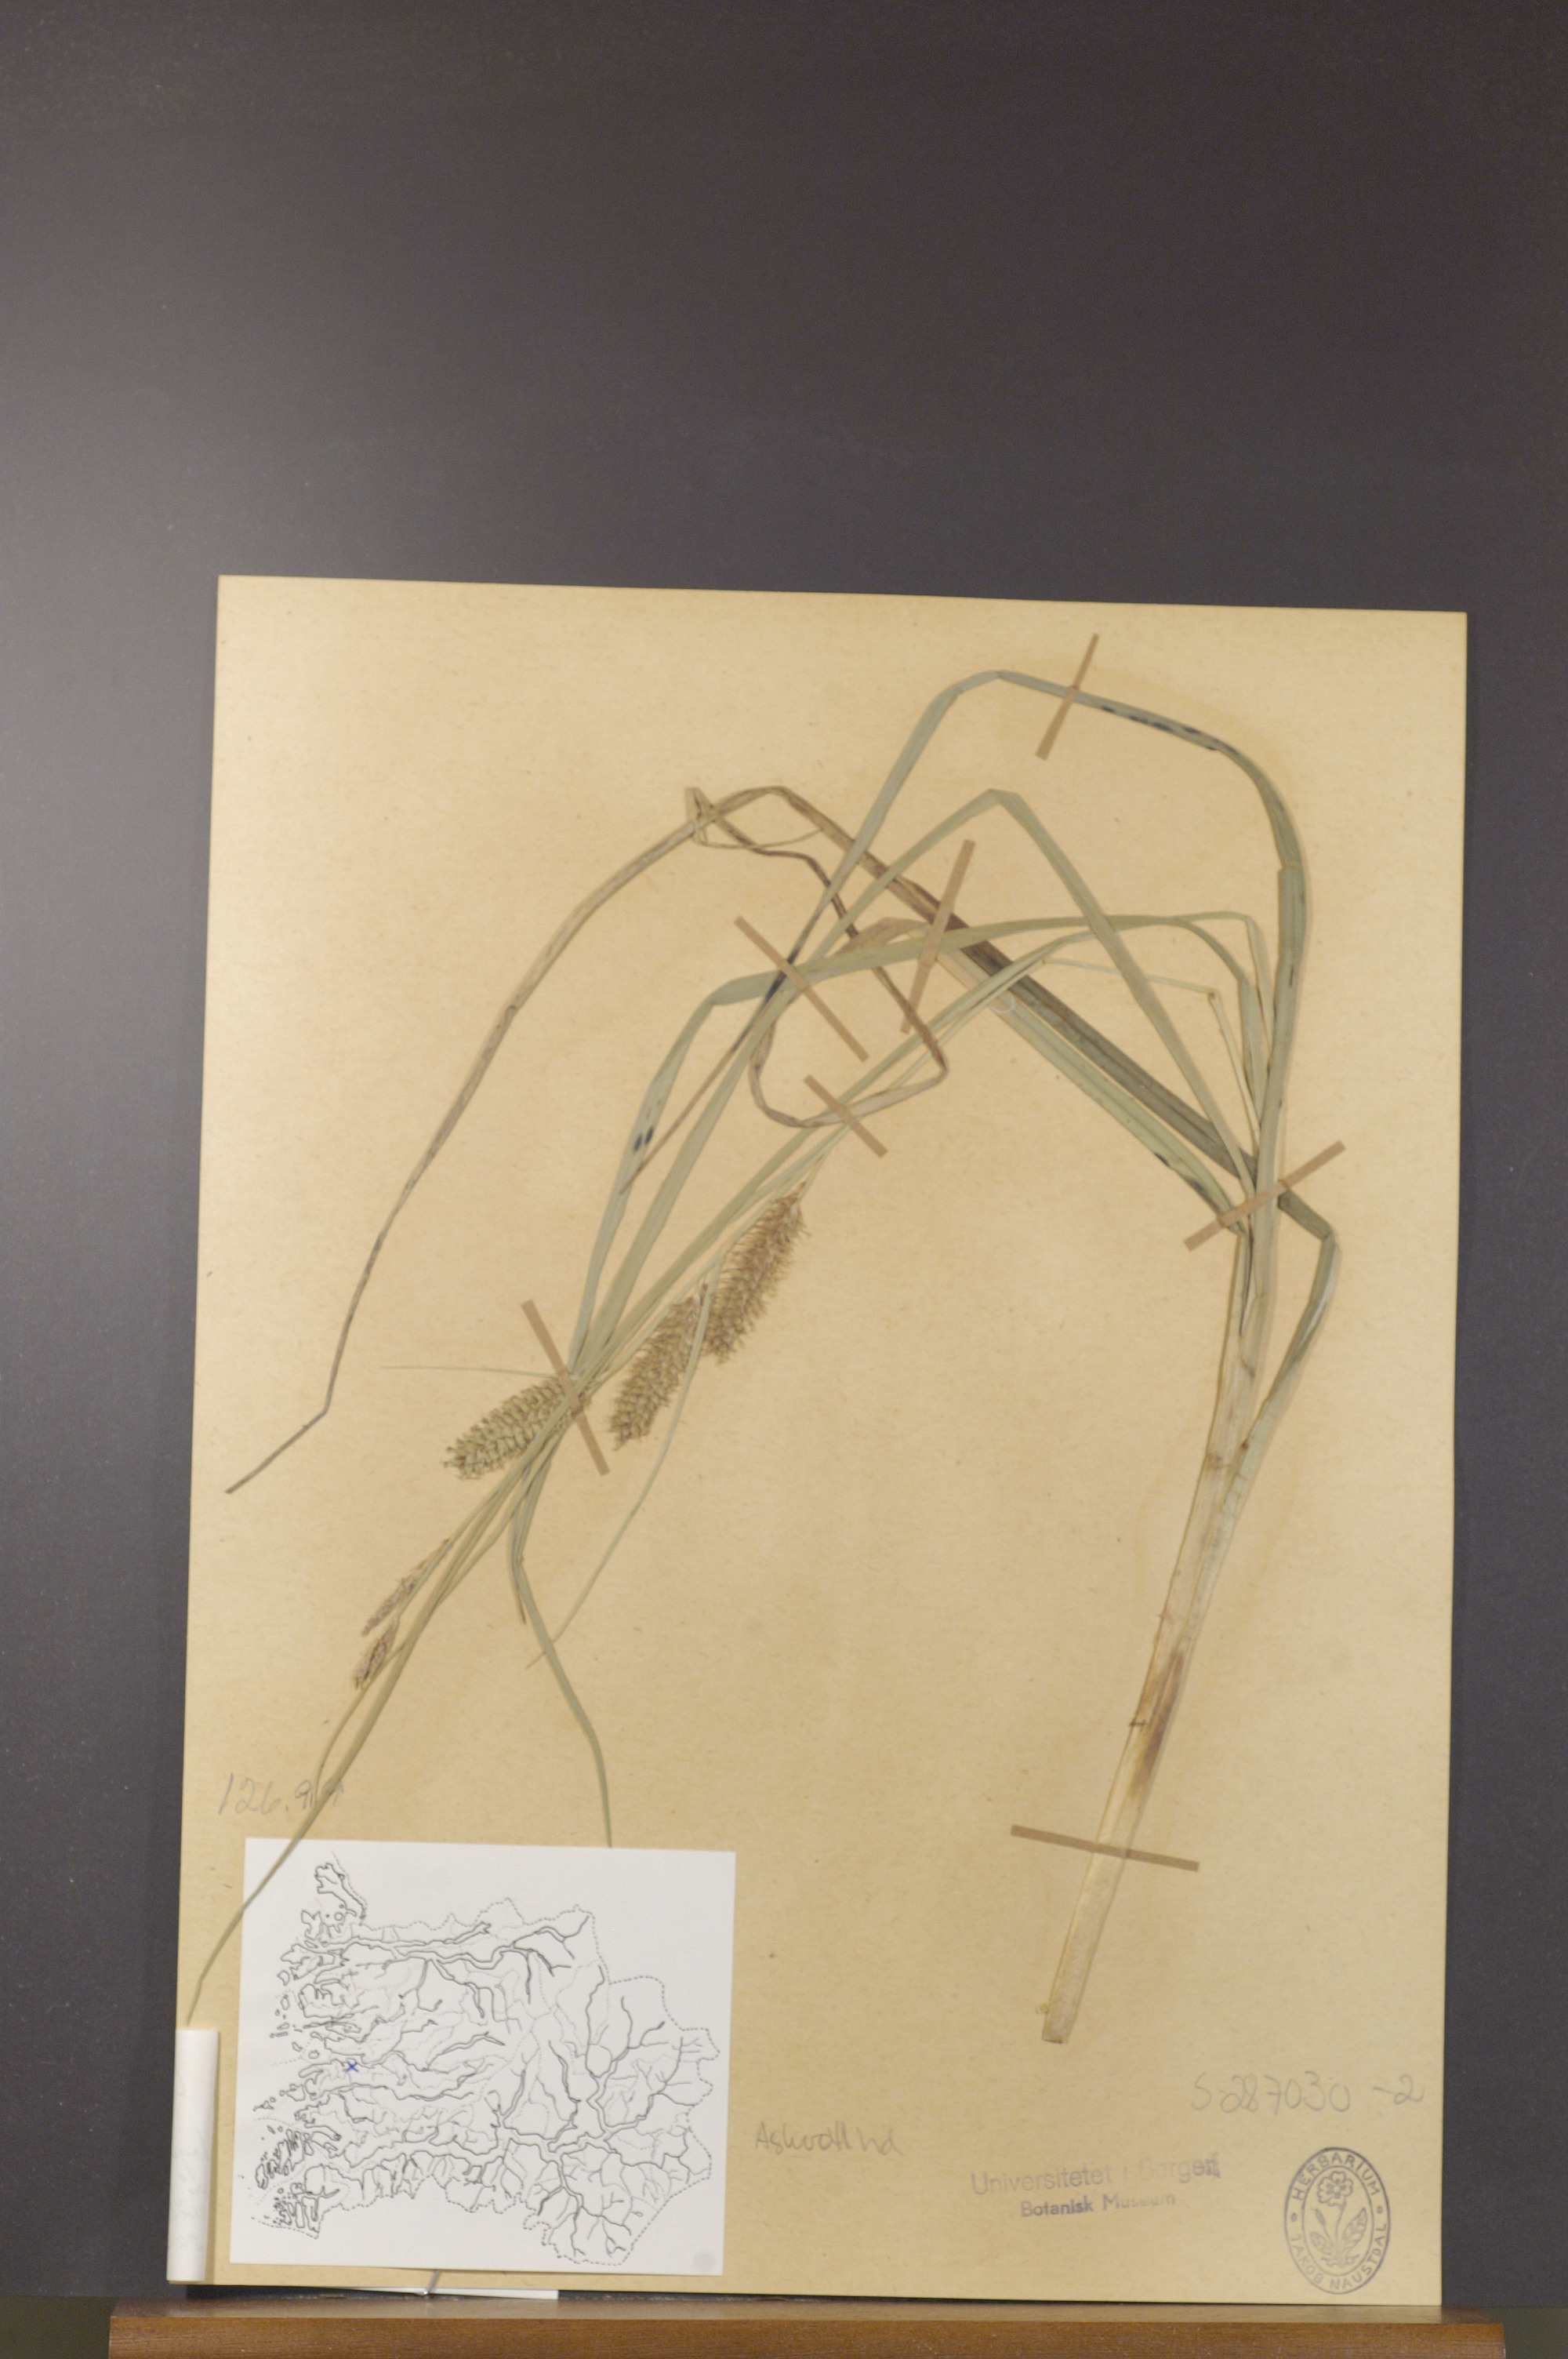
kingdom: Plantae
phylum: Tracheophyta
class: Liliopsida
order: Poales
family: Cyperaceae
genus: Carex
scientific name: Carex rostrata
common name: Bottle sedge
